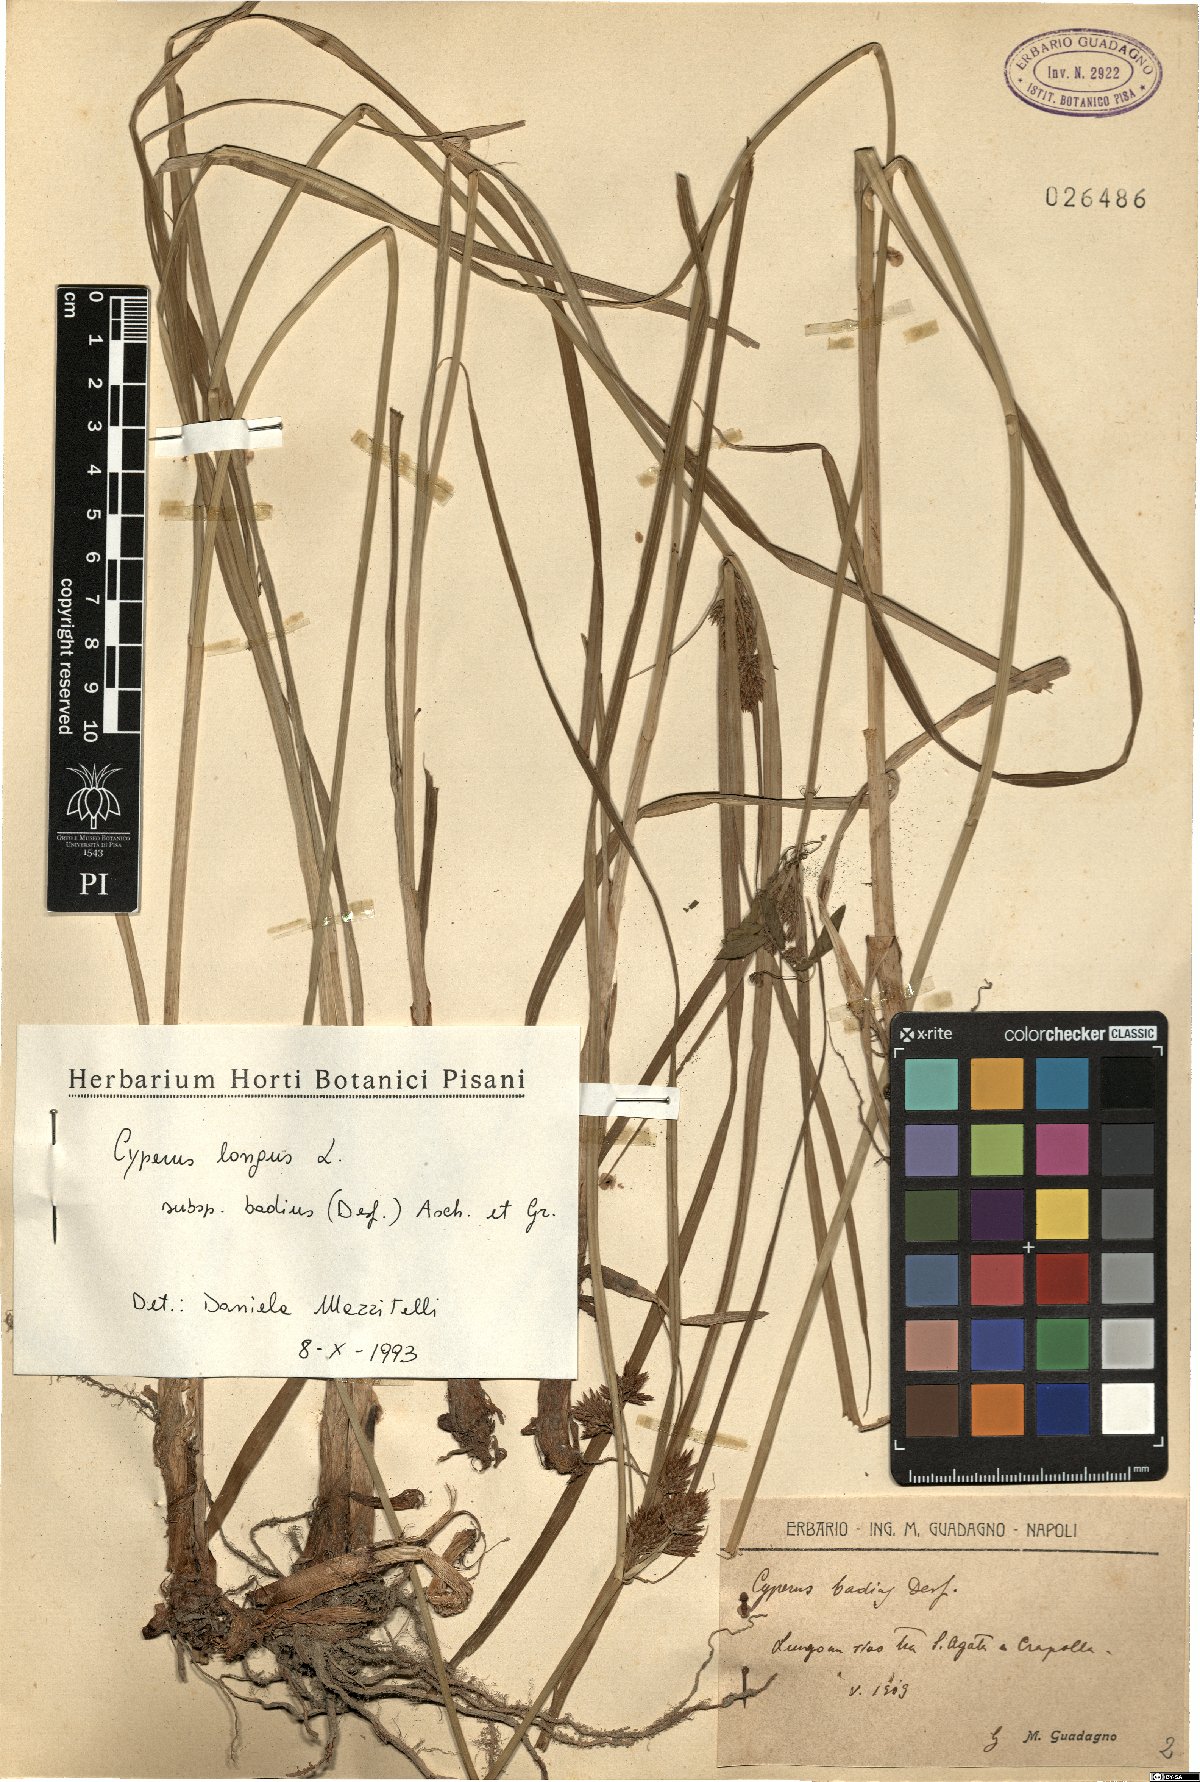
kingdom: Plantae
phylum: Tracheophyta
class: Liliopsida
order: Poales
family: Cyperaceae
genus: Cyperus
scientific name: Cyperus longus
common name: Galingale
